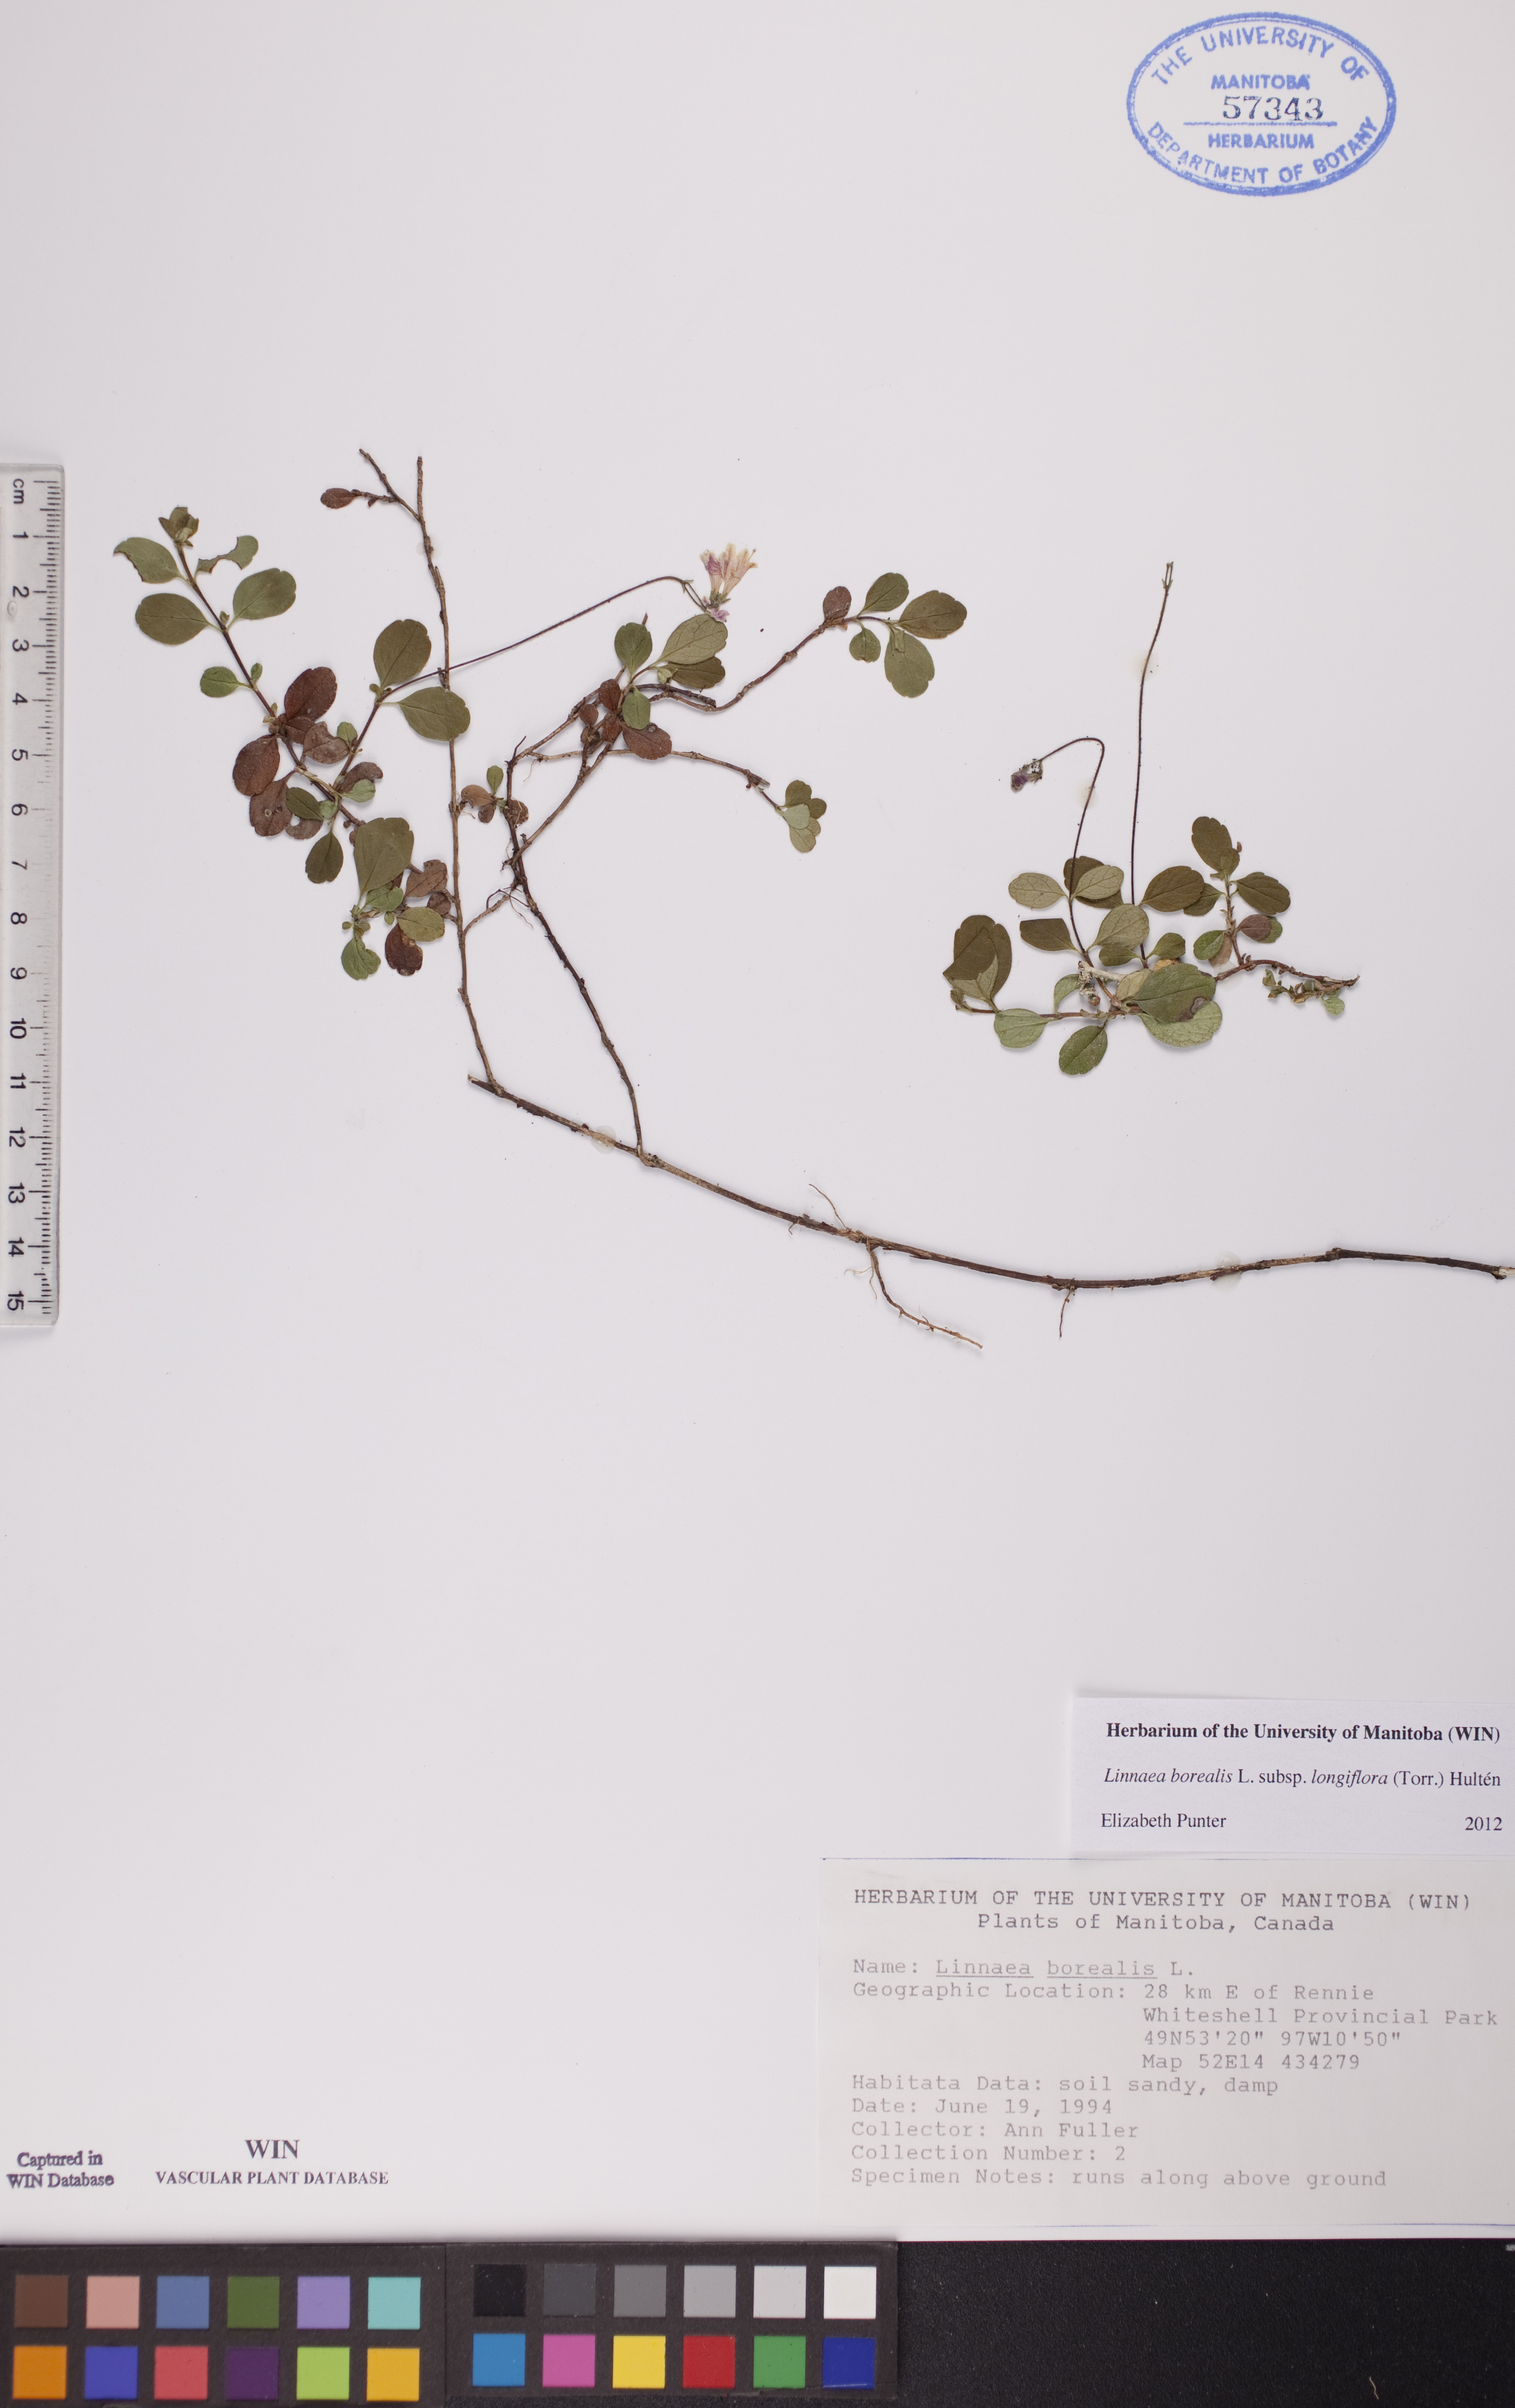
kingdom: Plantae
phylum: Tracheophyta
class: Magnoliopsida
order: Dipsacales
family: Caprifoliaceae
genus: Linnaea
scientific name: Linnaea borealis
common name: Twinflower
